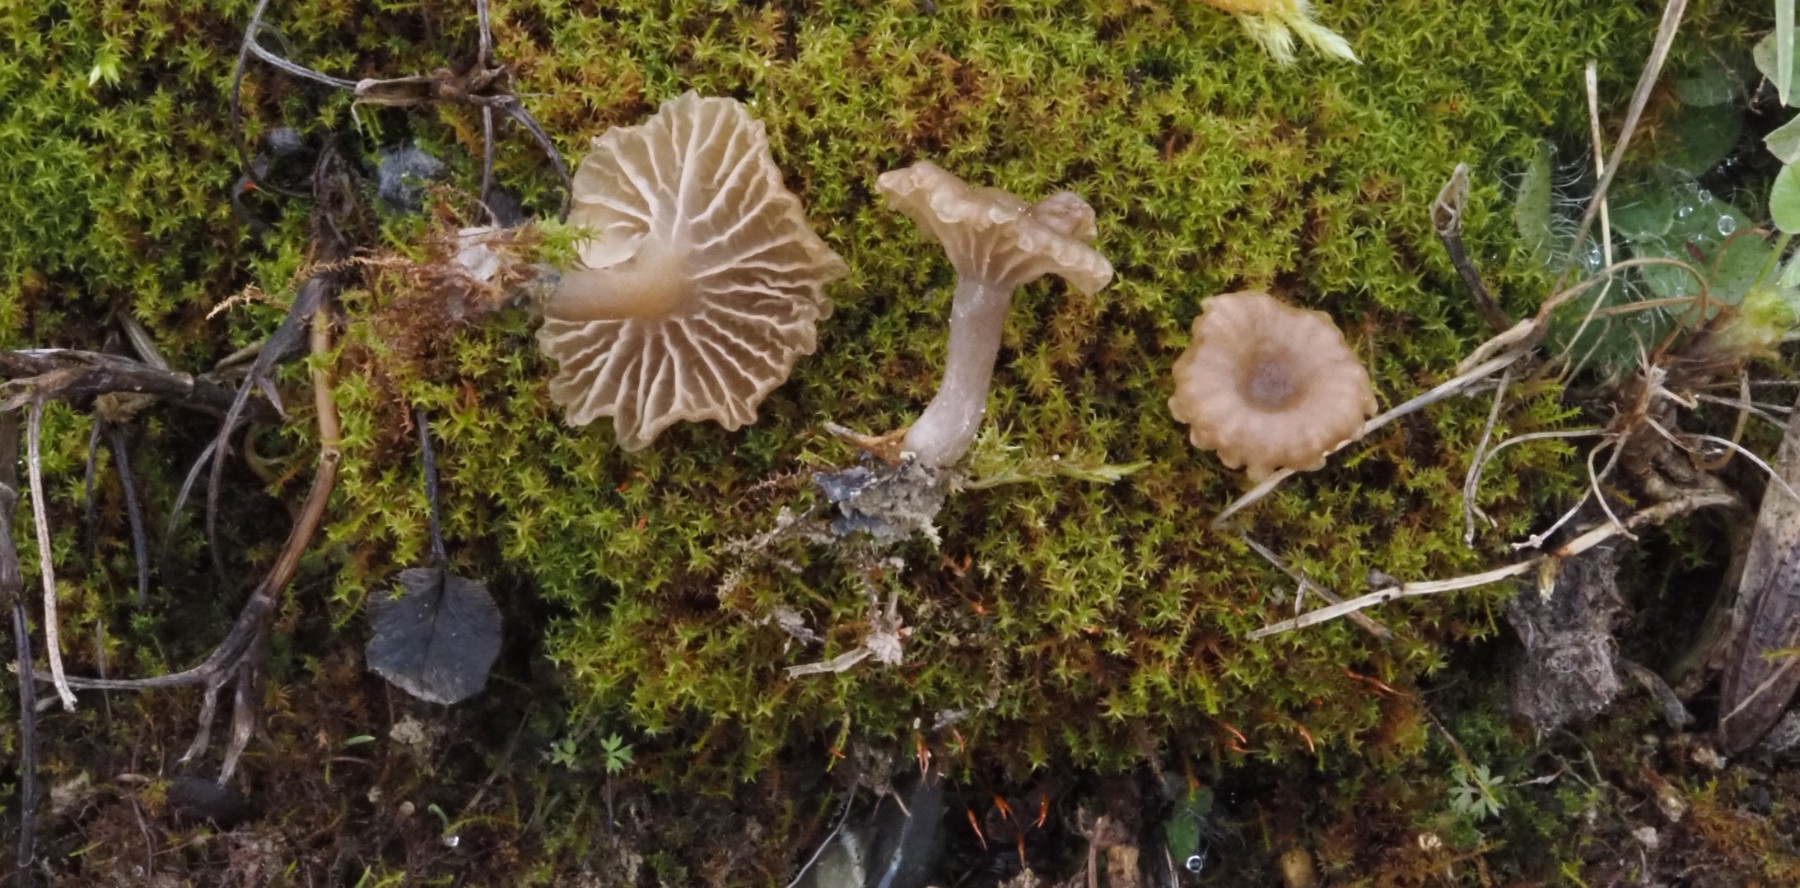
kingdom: Fungi
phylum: Basidiomycota
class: Agaricomycetes
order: Agaricales
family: Hygrophoraceae
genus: Arrhenia
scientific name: Arrhenia elegans
